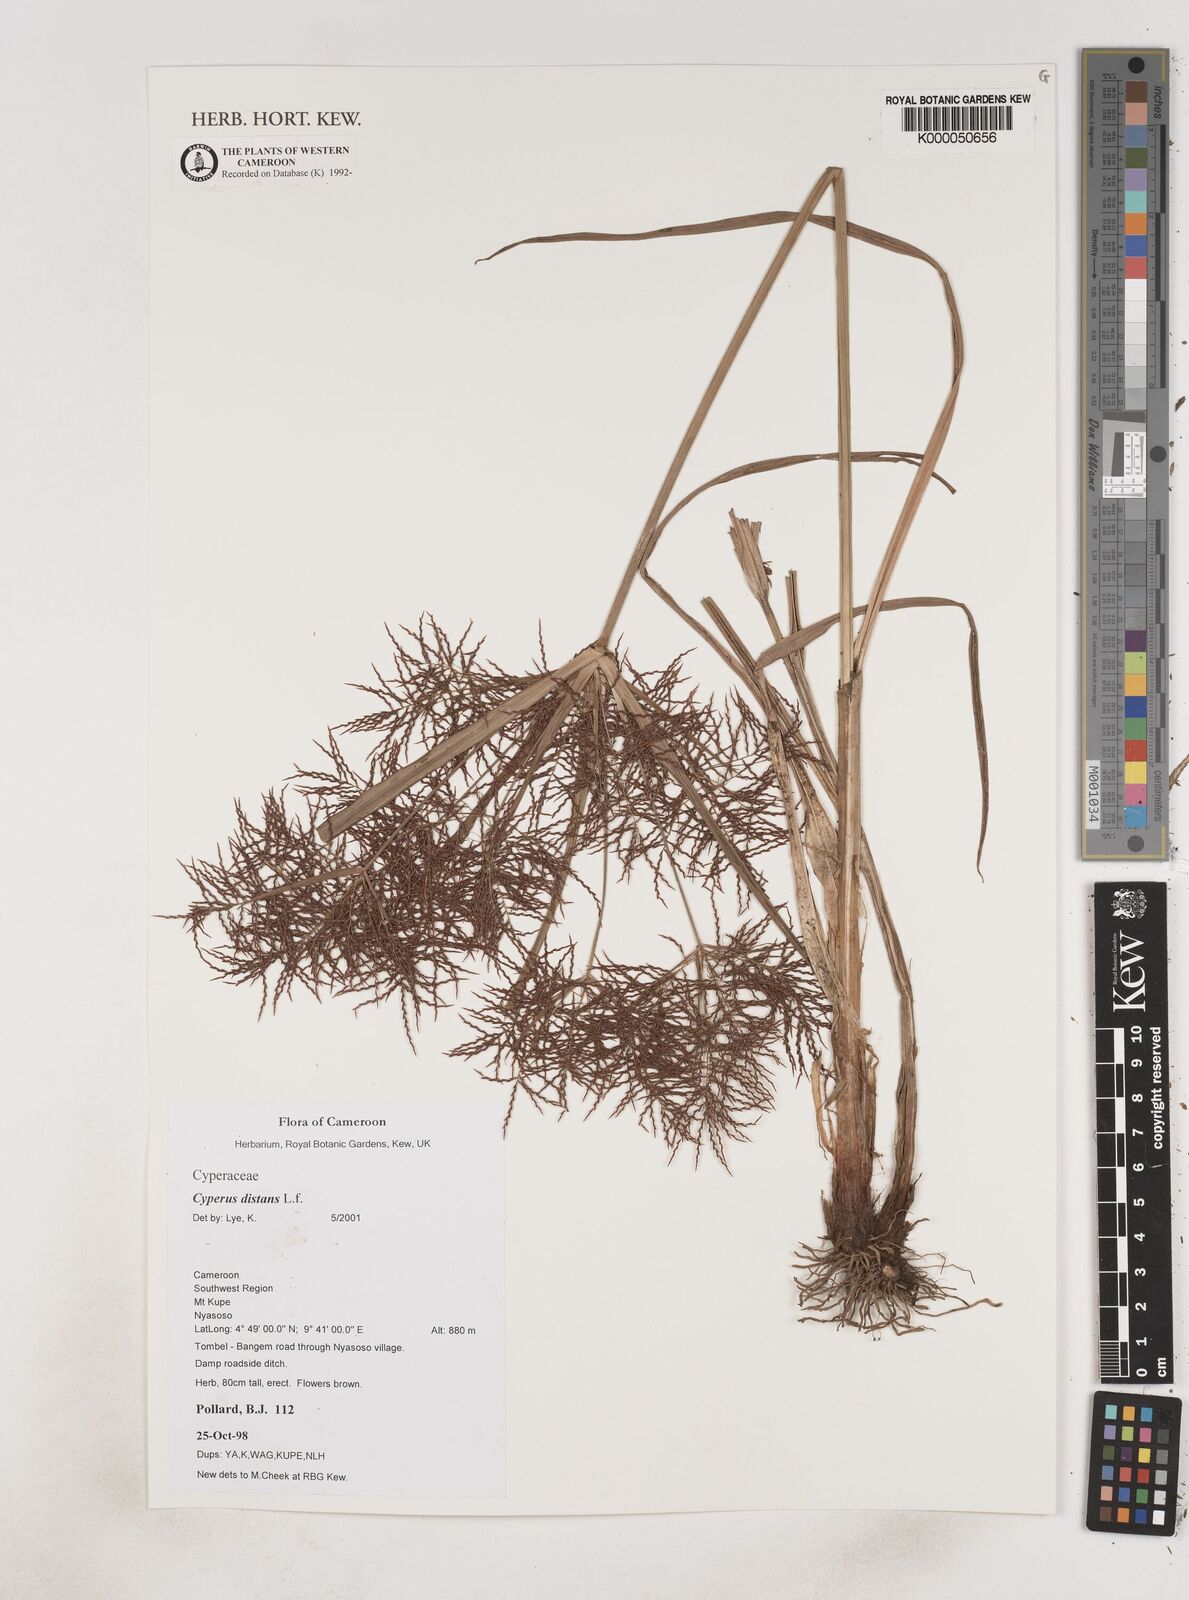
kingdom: Plantae
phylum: Tracheophyta
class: Liliopsida
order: Poales
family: Cyperaceae
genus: Cyperus
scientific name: Cyperus distans
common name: Slender cyperus
